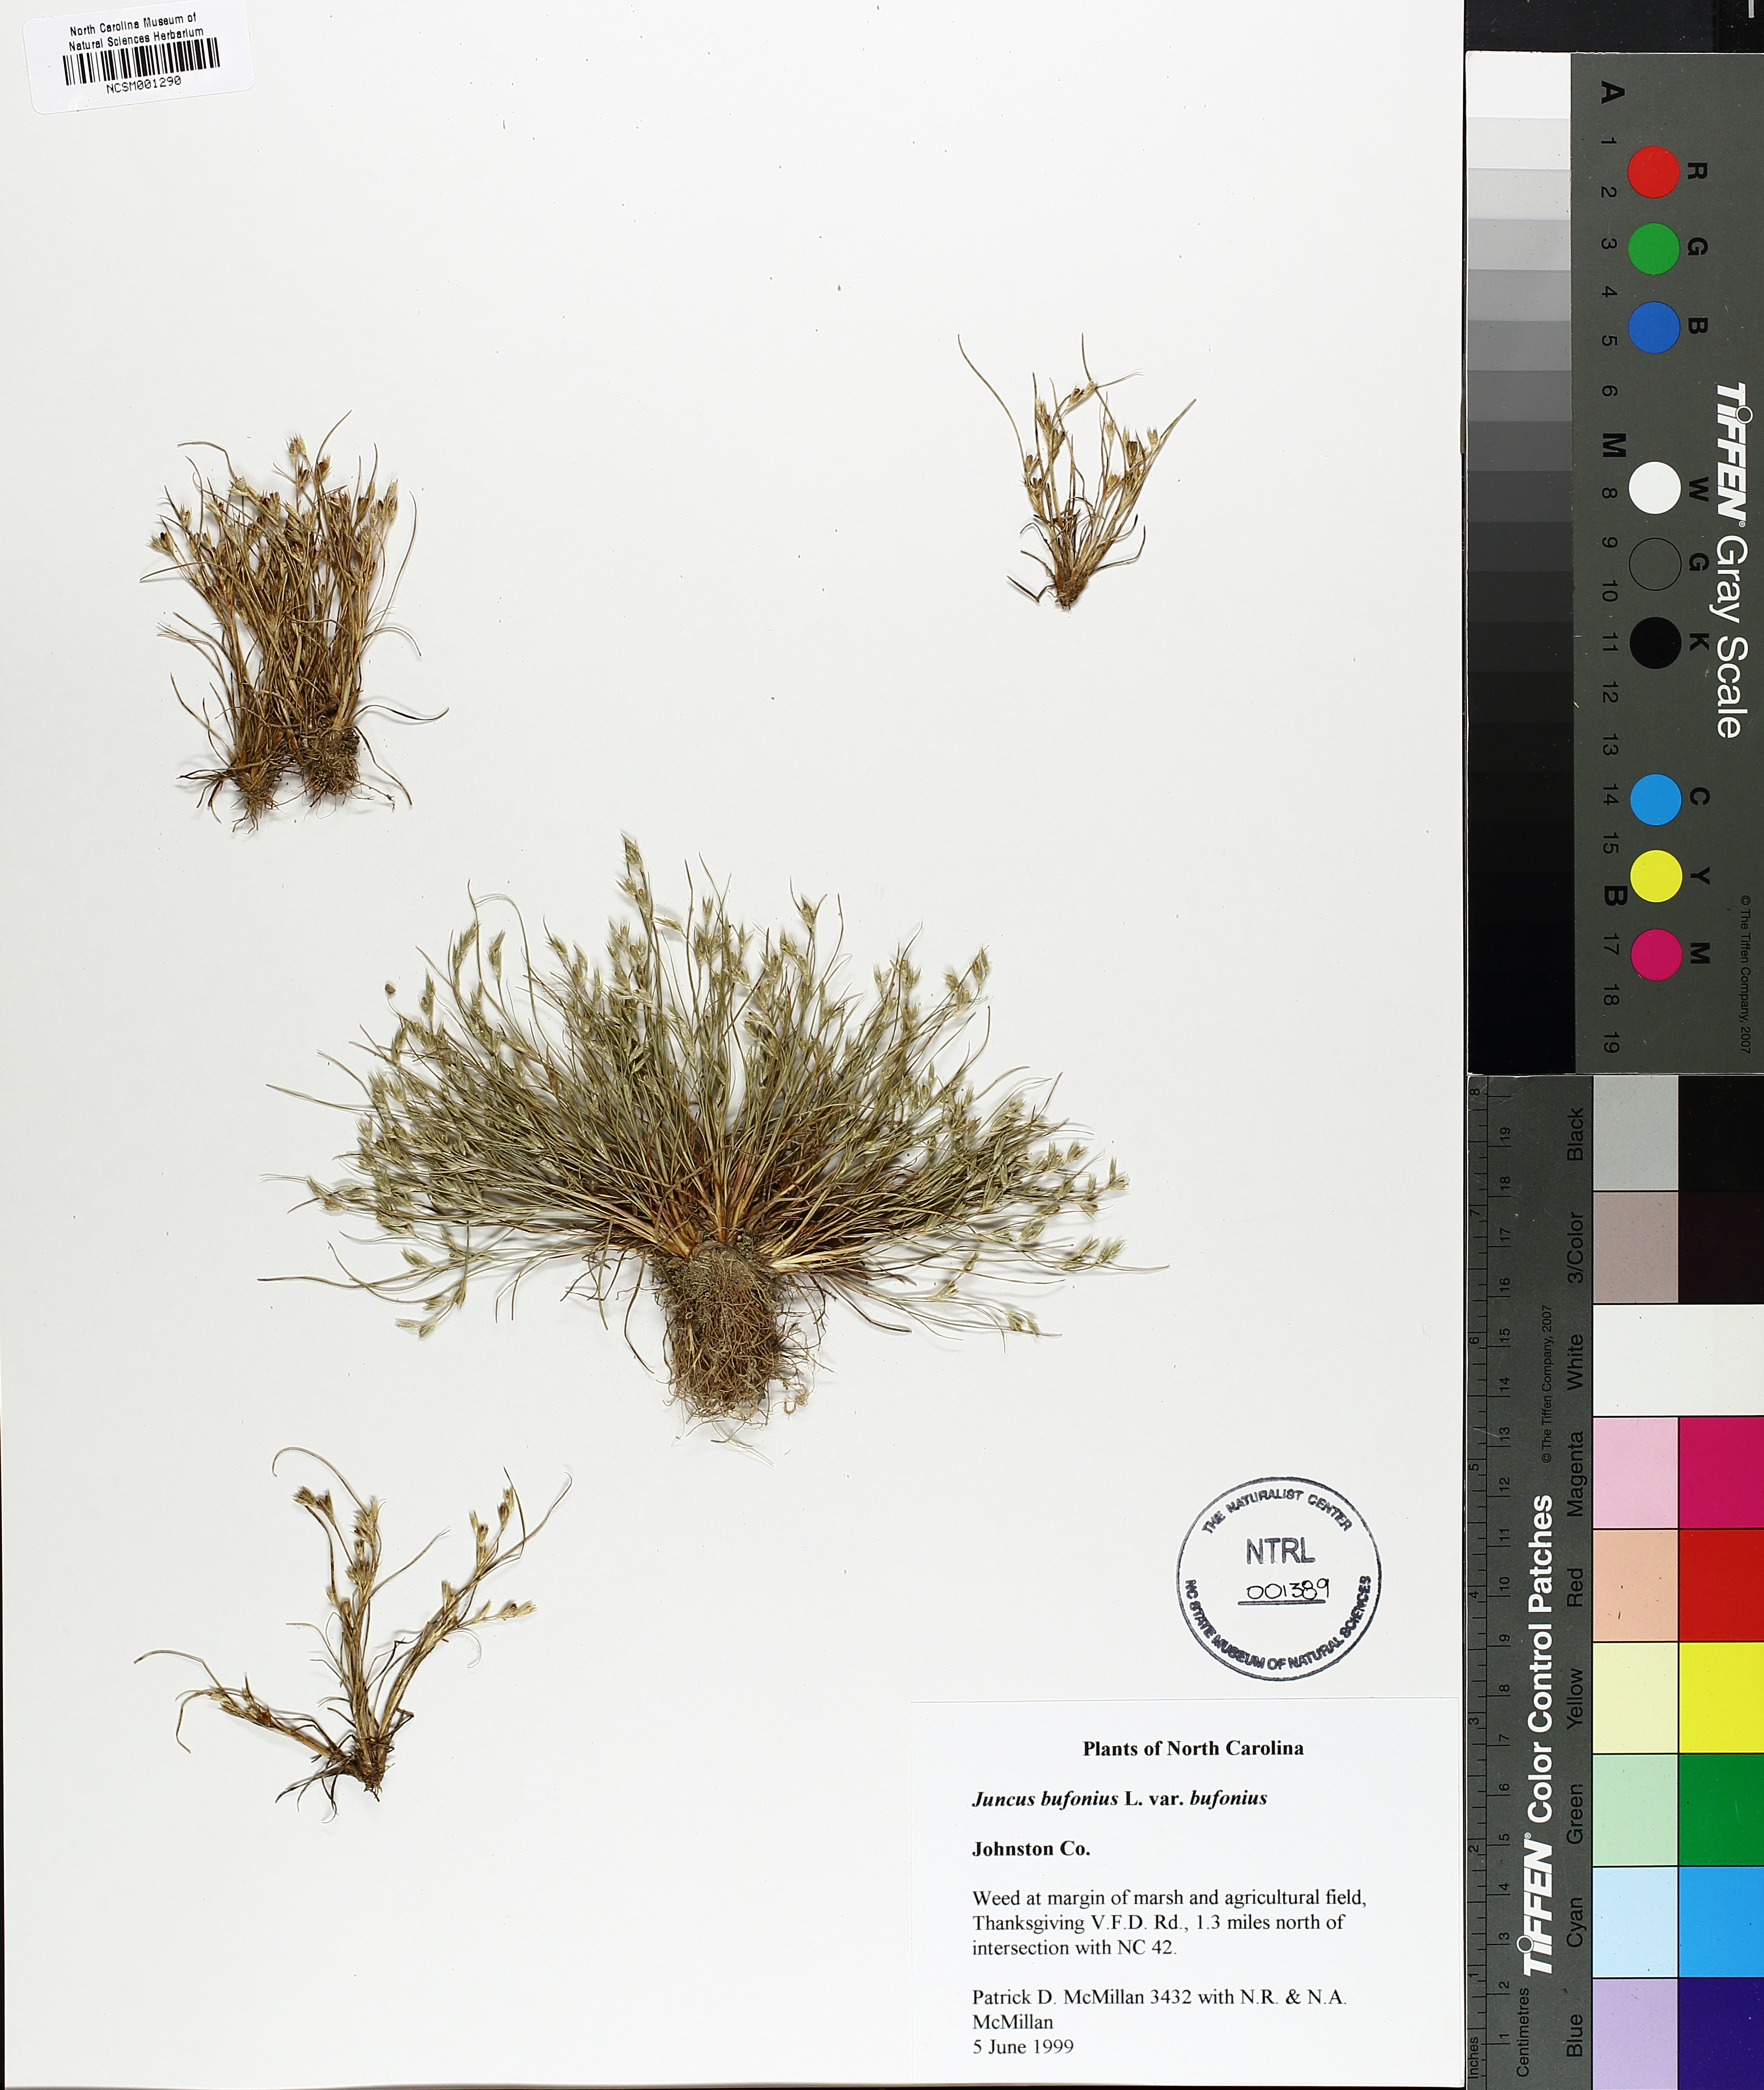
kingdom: Plantae
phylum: Tracheophyta
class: Liliopsida
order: Poales
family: Juncaceae
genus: Juncus
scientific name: Juncus bufonius
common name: Toad rush
